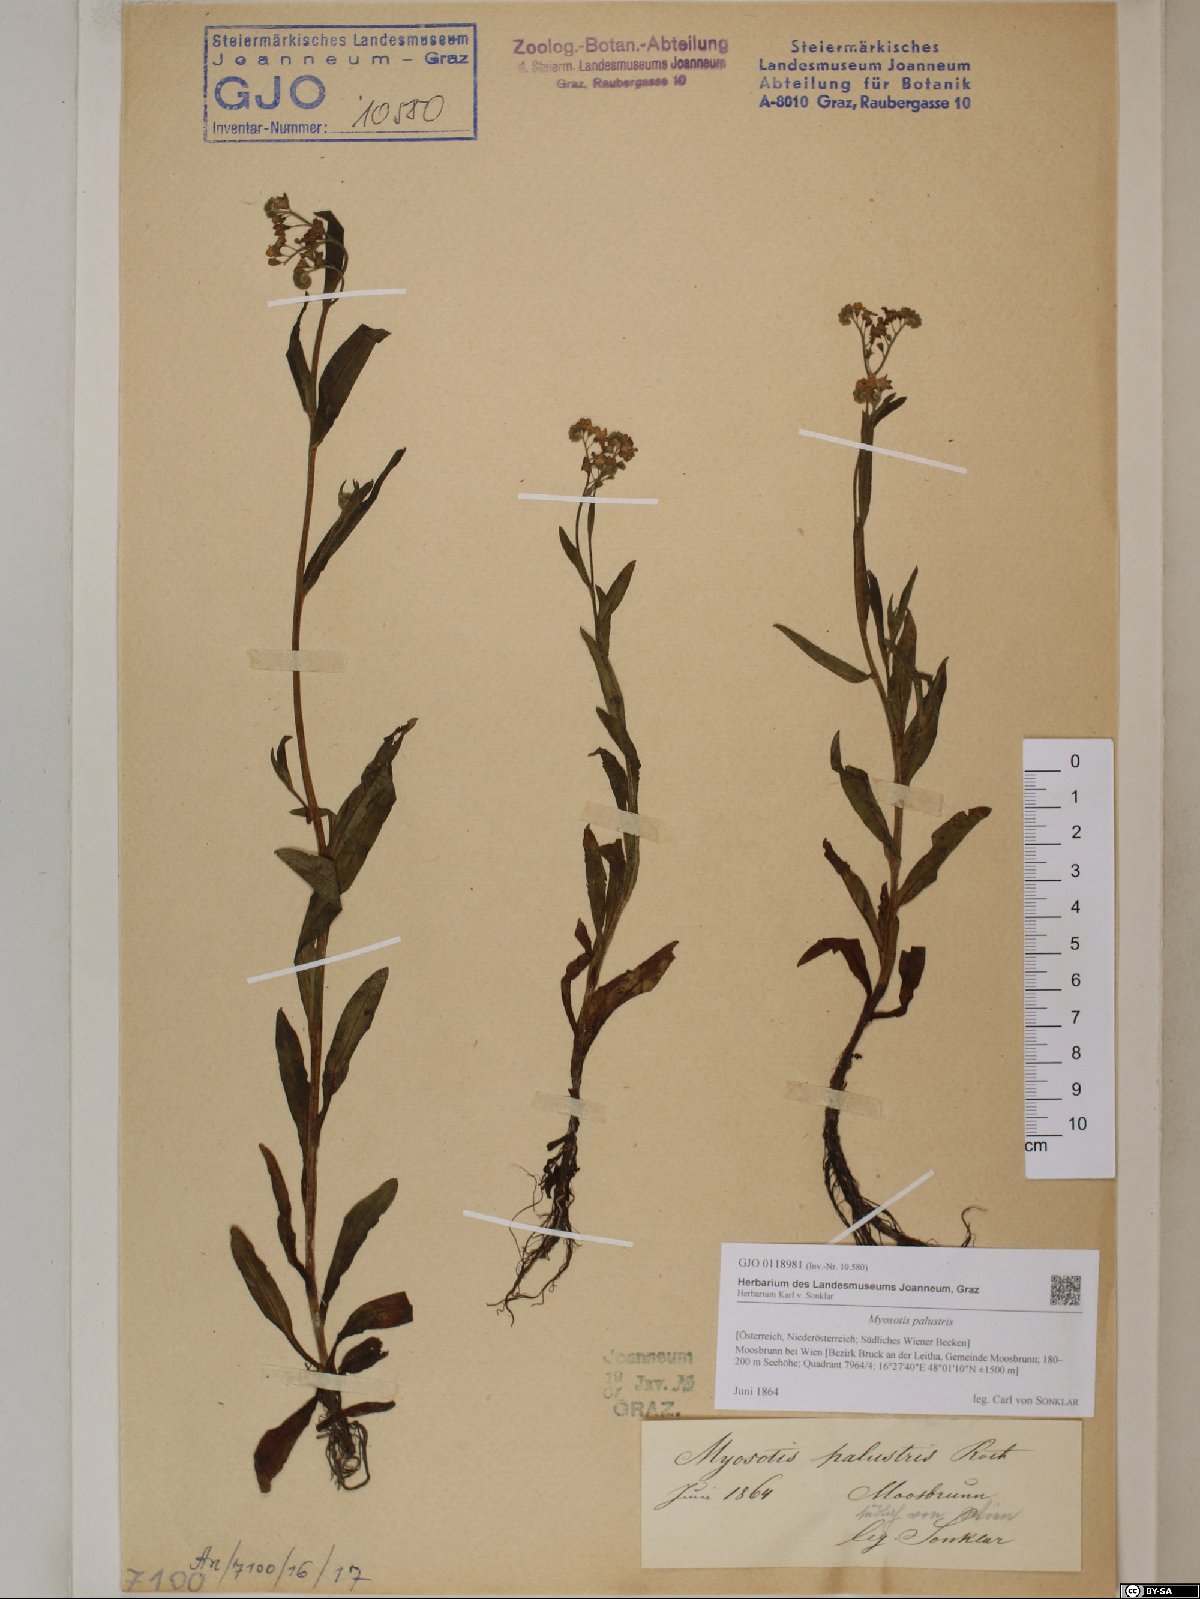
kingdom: Plantae
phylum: Tracheophyta
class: Magnoliopsida
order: Boraginales
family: Boraginaceae
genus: Myosotis
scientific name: Myosotis scorpioides
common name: Water forget-me-not
